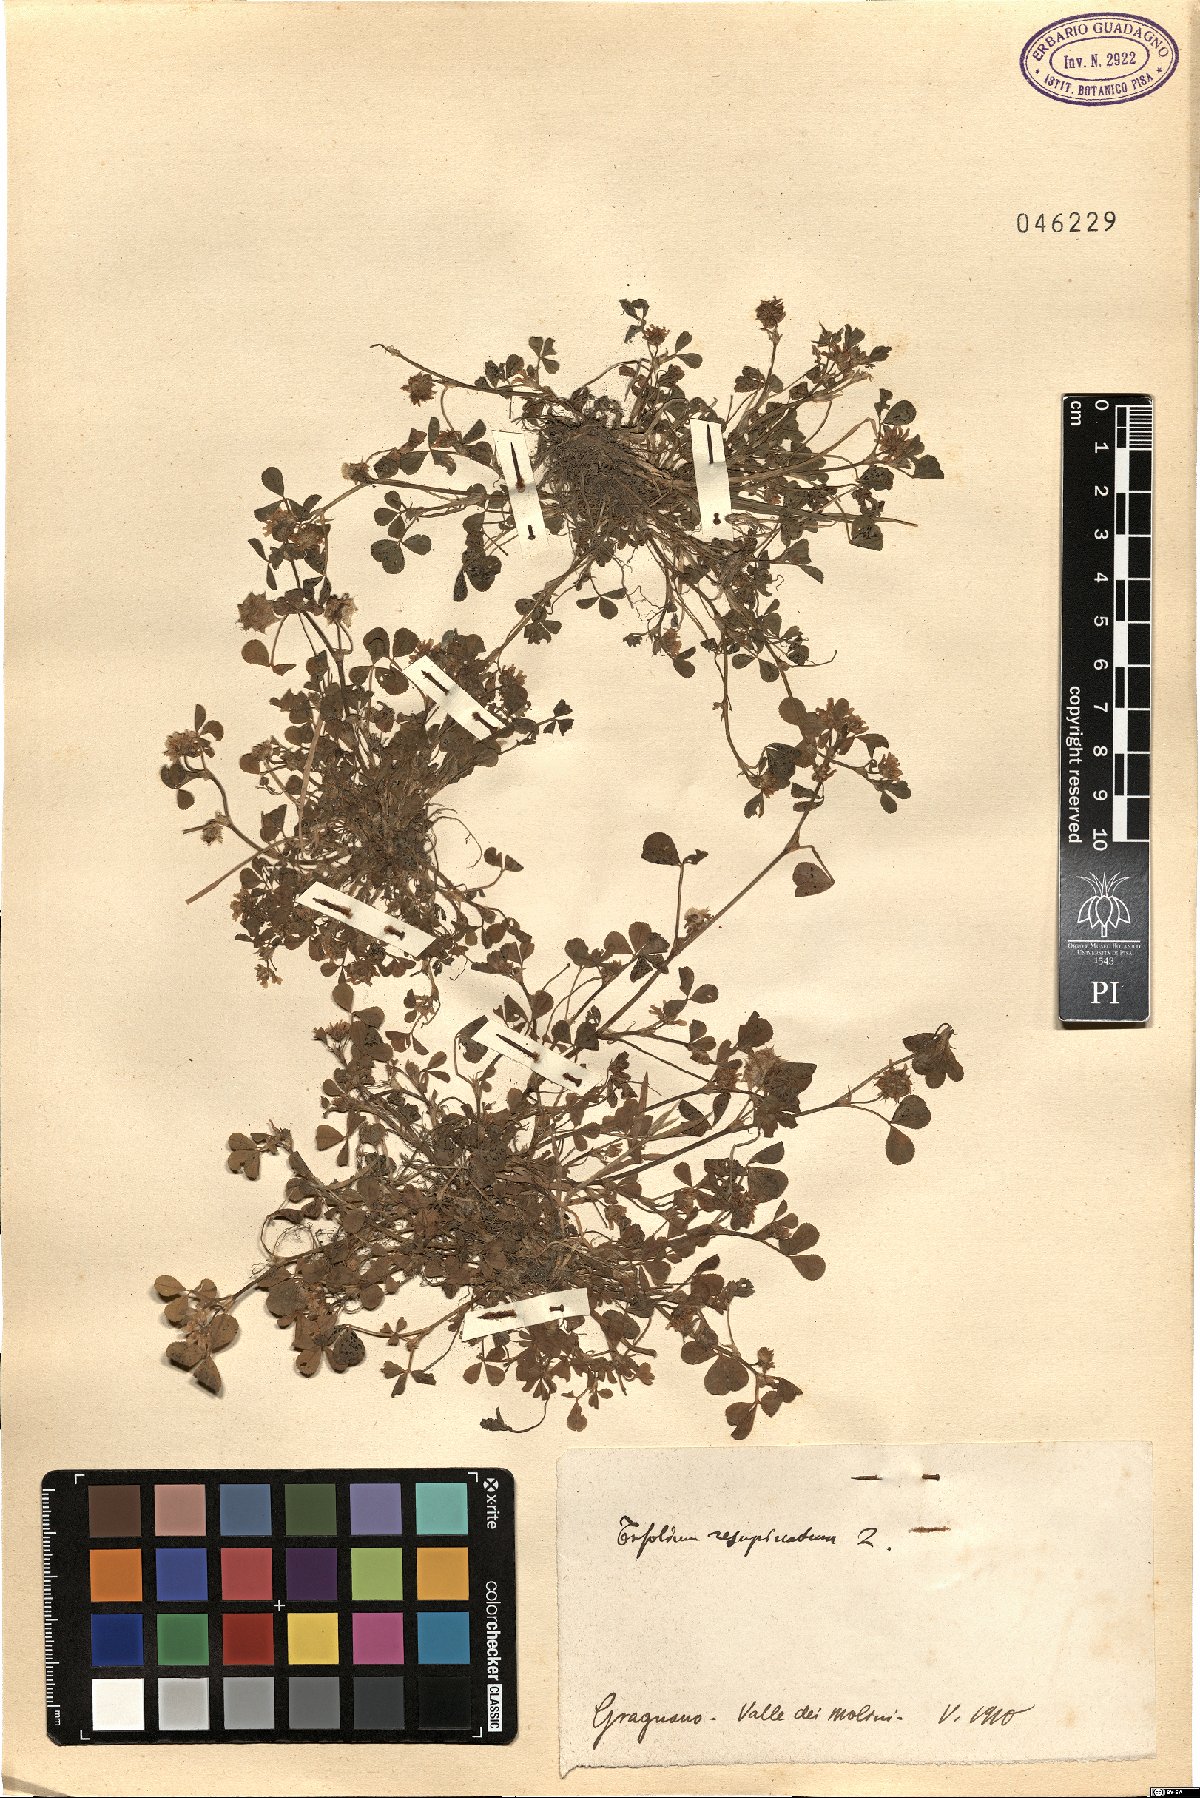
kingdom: Plantae
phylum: Tracheophyta
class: Magnoliopsida
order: Fabales
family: Fabaceae
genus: Trifolium
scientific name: Trifolium resupinatum
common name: Reversed clover
